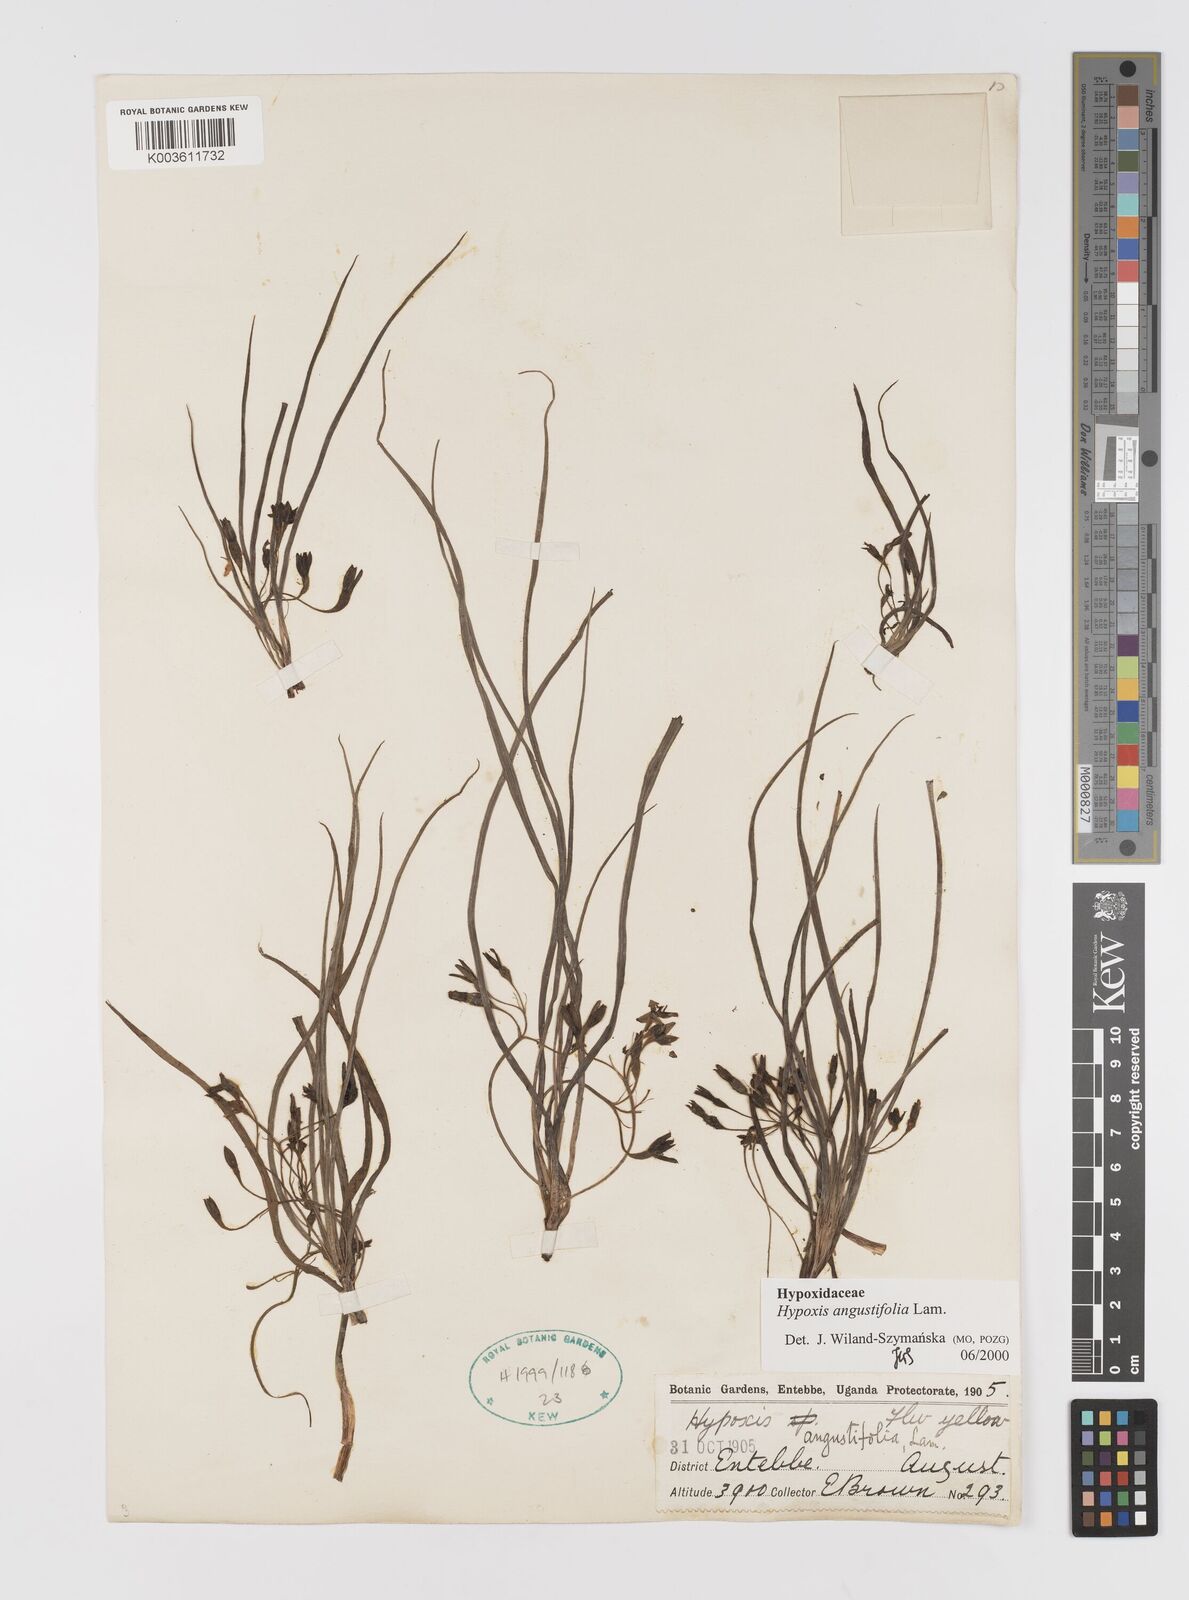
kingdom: Plantae
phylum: Tracheophyta
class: Liliopsida
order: Asparagales
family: Hypoxidaceae
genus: Hypoxis
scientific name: Hypoxis angustifolia
